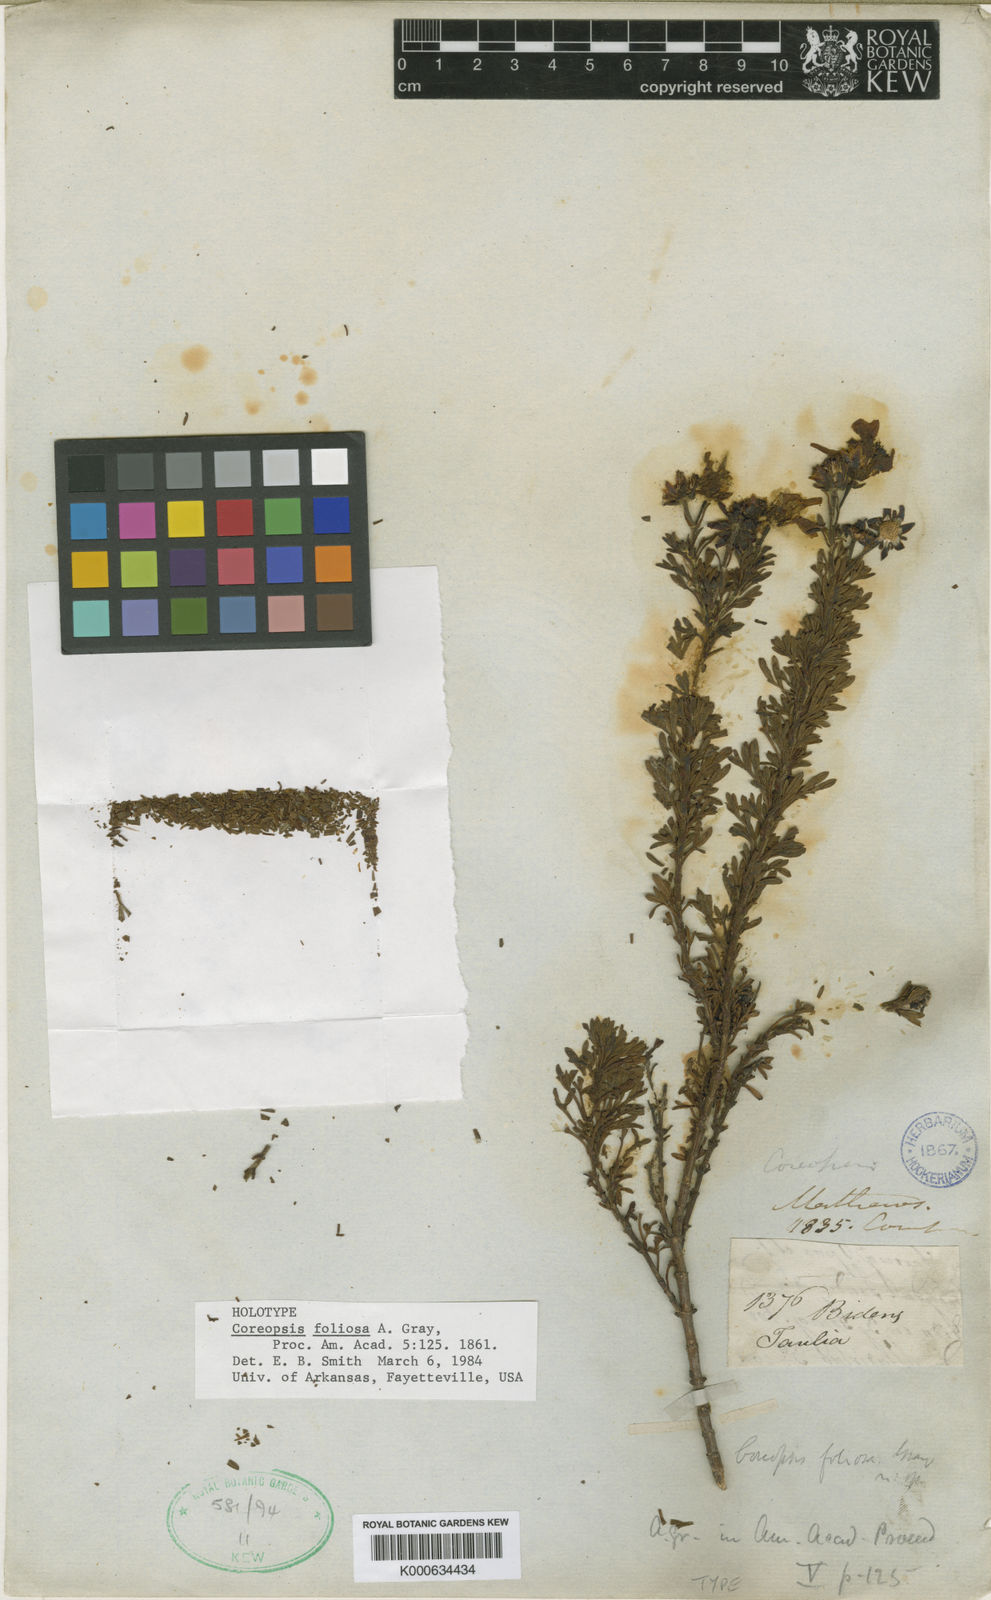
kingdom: Plantae
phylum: Tracheophyta
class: Magnoliopsida
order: Asterales
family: Asteraceae
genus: Coreopsis
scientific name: Coreopsis foliosa
